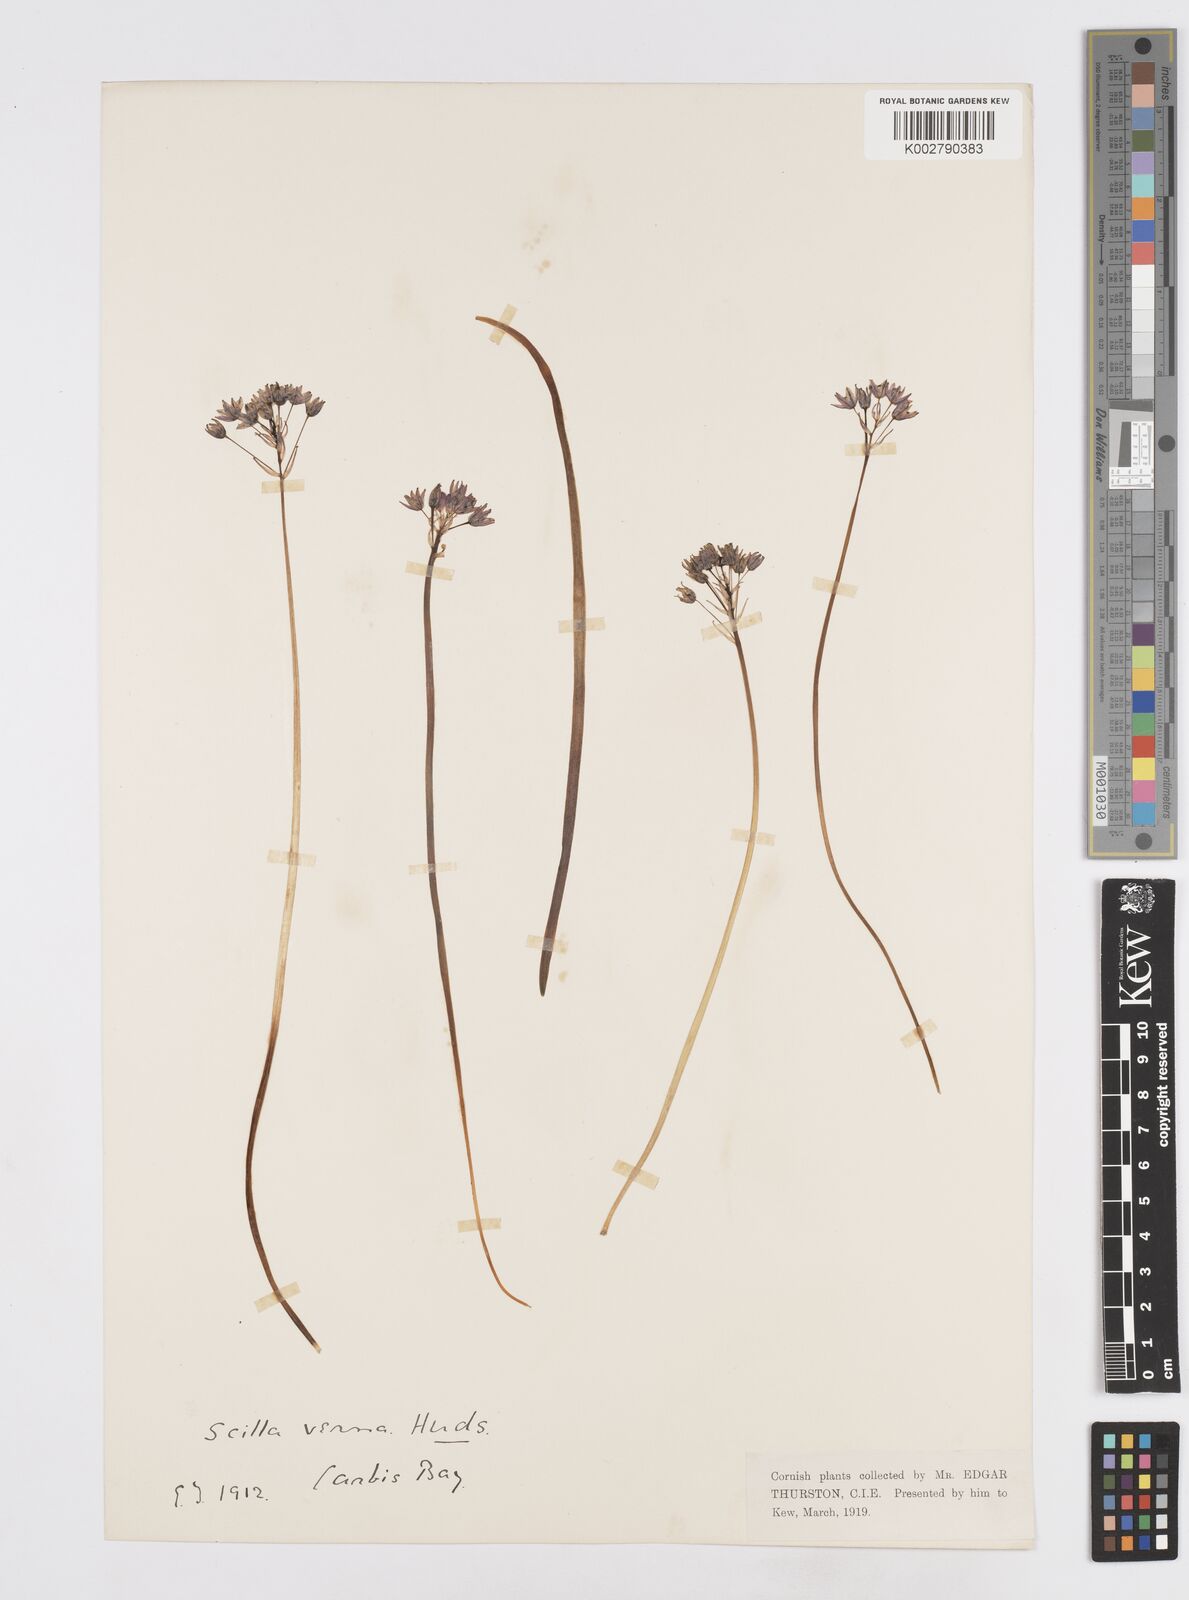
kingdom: Plantae
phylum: Tracheophyta
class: Liliopsida
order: Asparagales
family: Asparagaceae
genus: Scilla
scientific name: Scilla verna
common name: Spring squill
